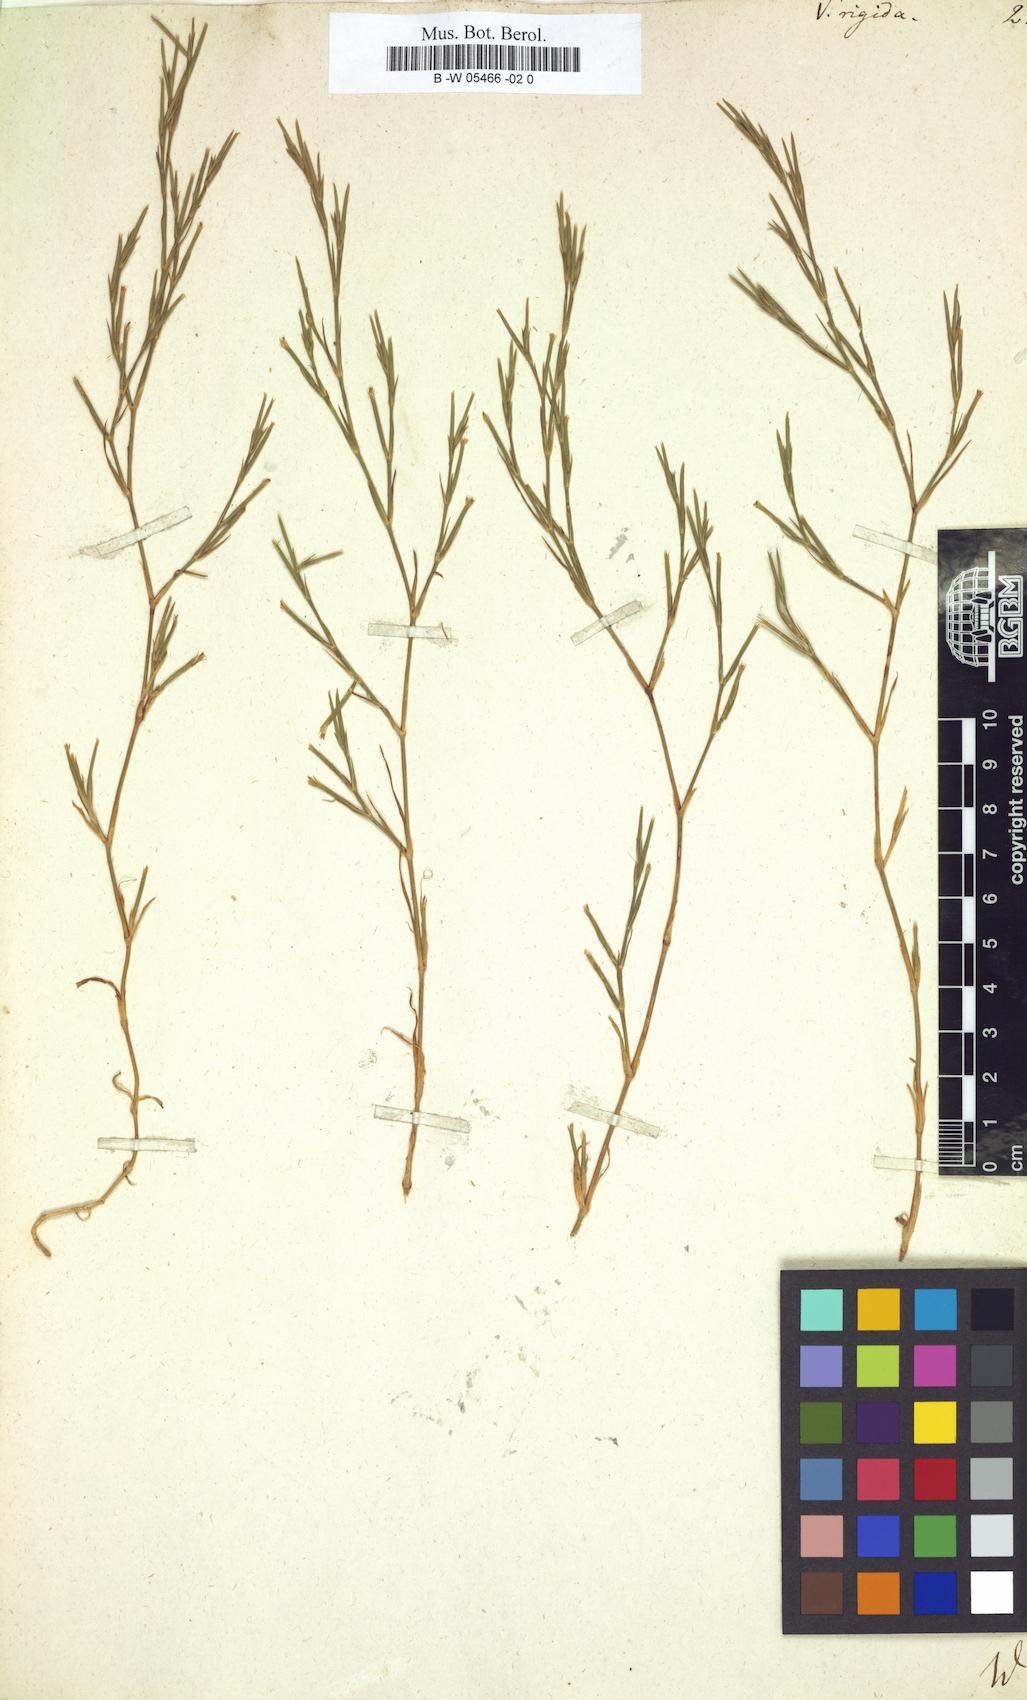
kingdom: Plantae
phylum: Tracheophyta
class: Magnoliopsida
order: Caryophyllales
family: Caryophyllaceae
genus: Dianthus
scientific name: Dianthus nudiflorus
